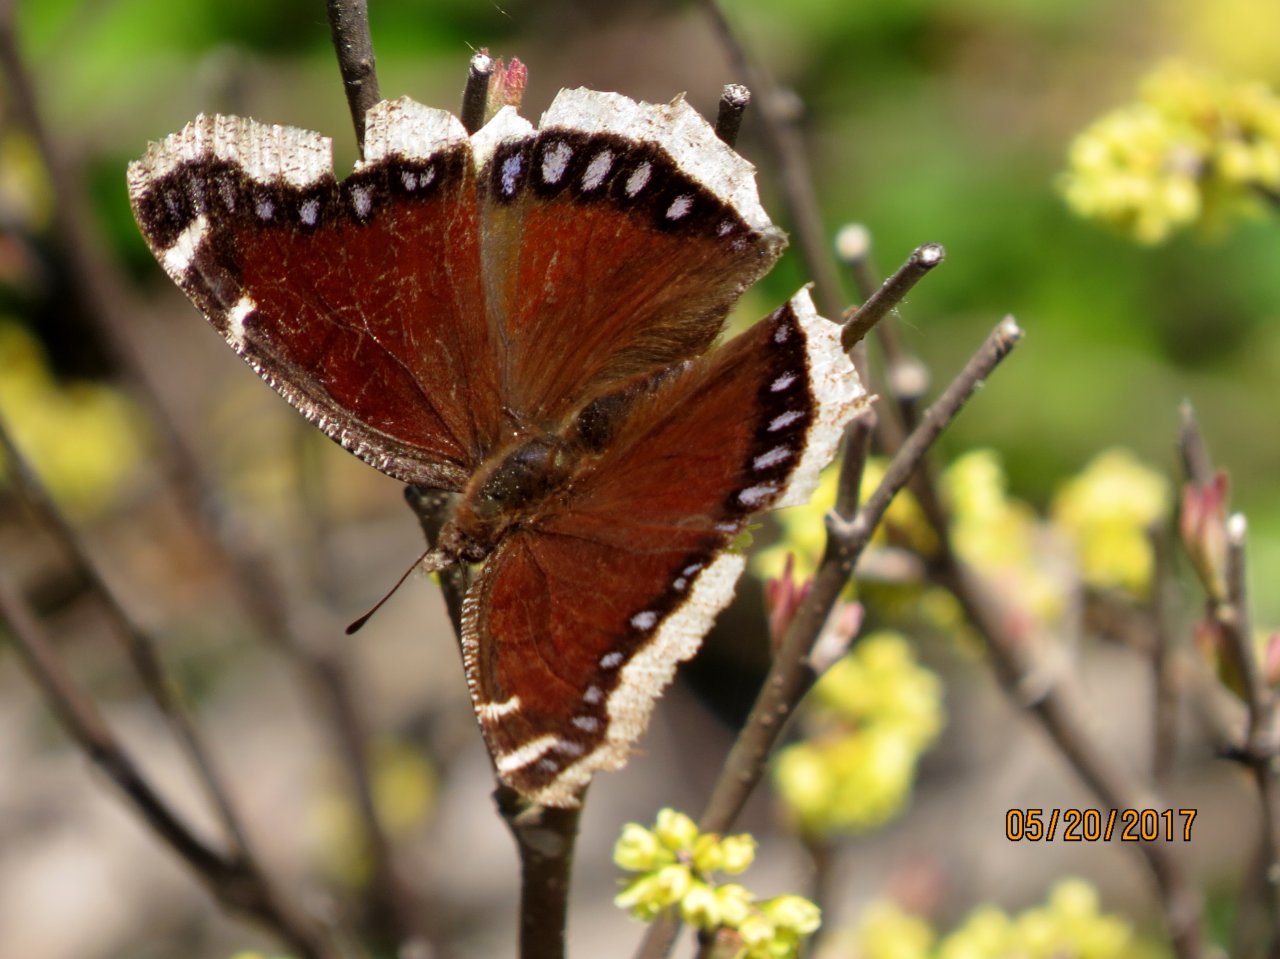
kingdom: Animalia
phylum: Arthropoda
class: Insecta
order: Lepidoptera
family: Nymphalidae
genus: Nymphalis
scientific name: Nymphalis antiopa
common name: Mourning Cloak
